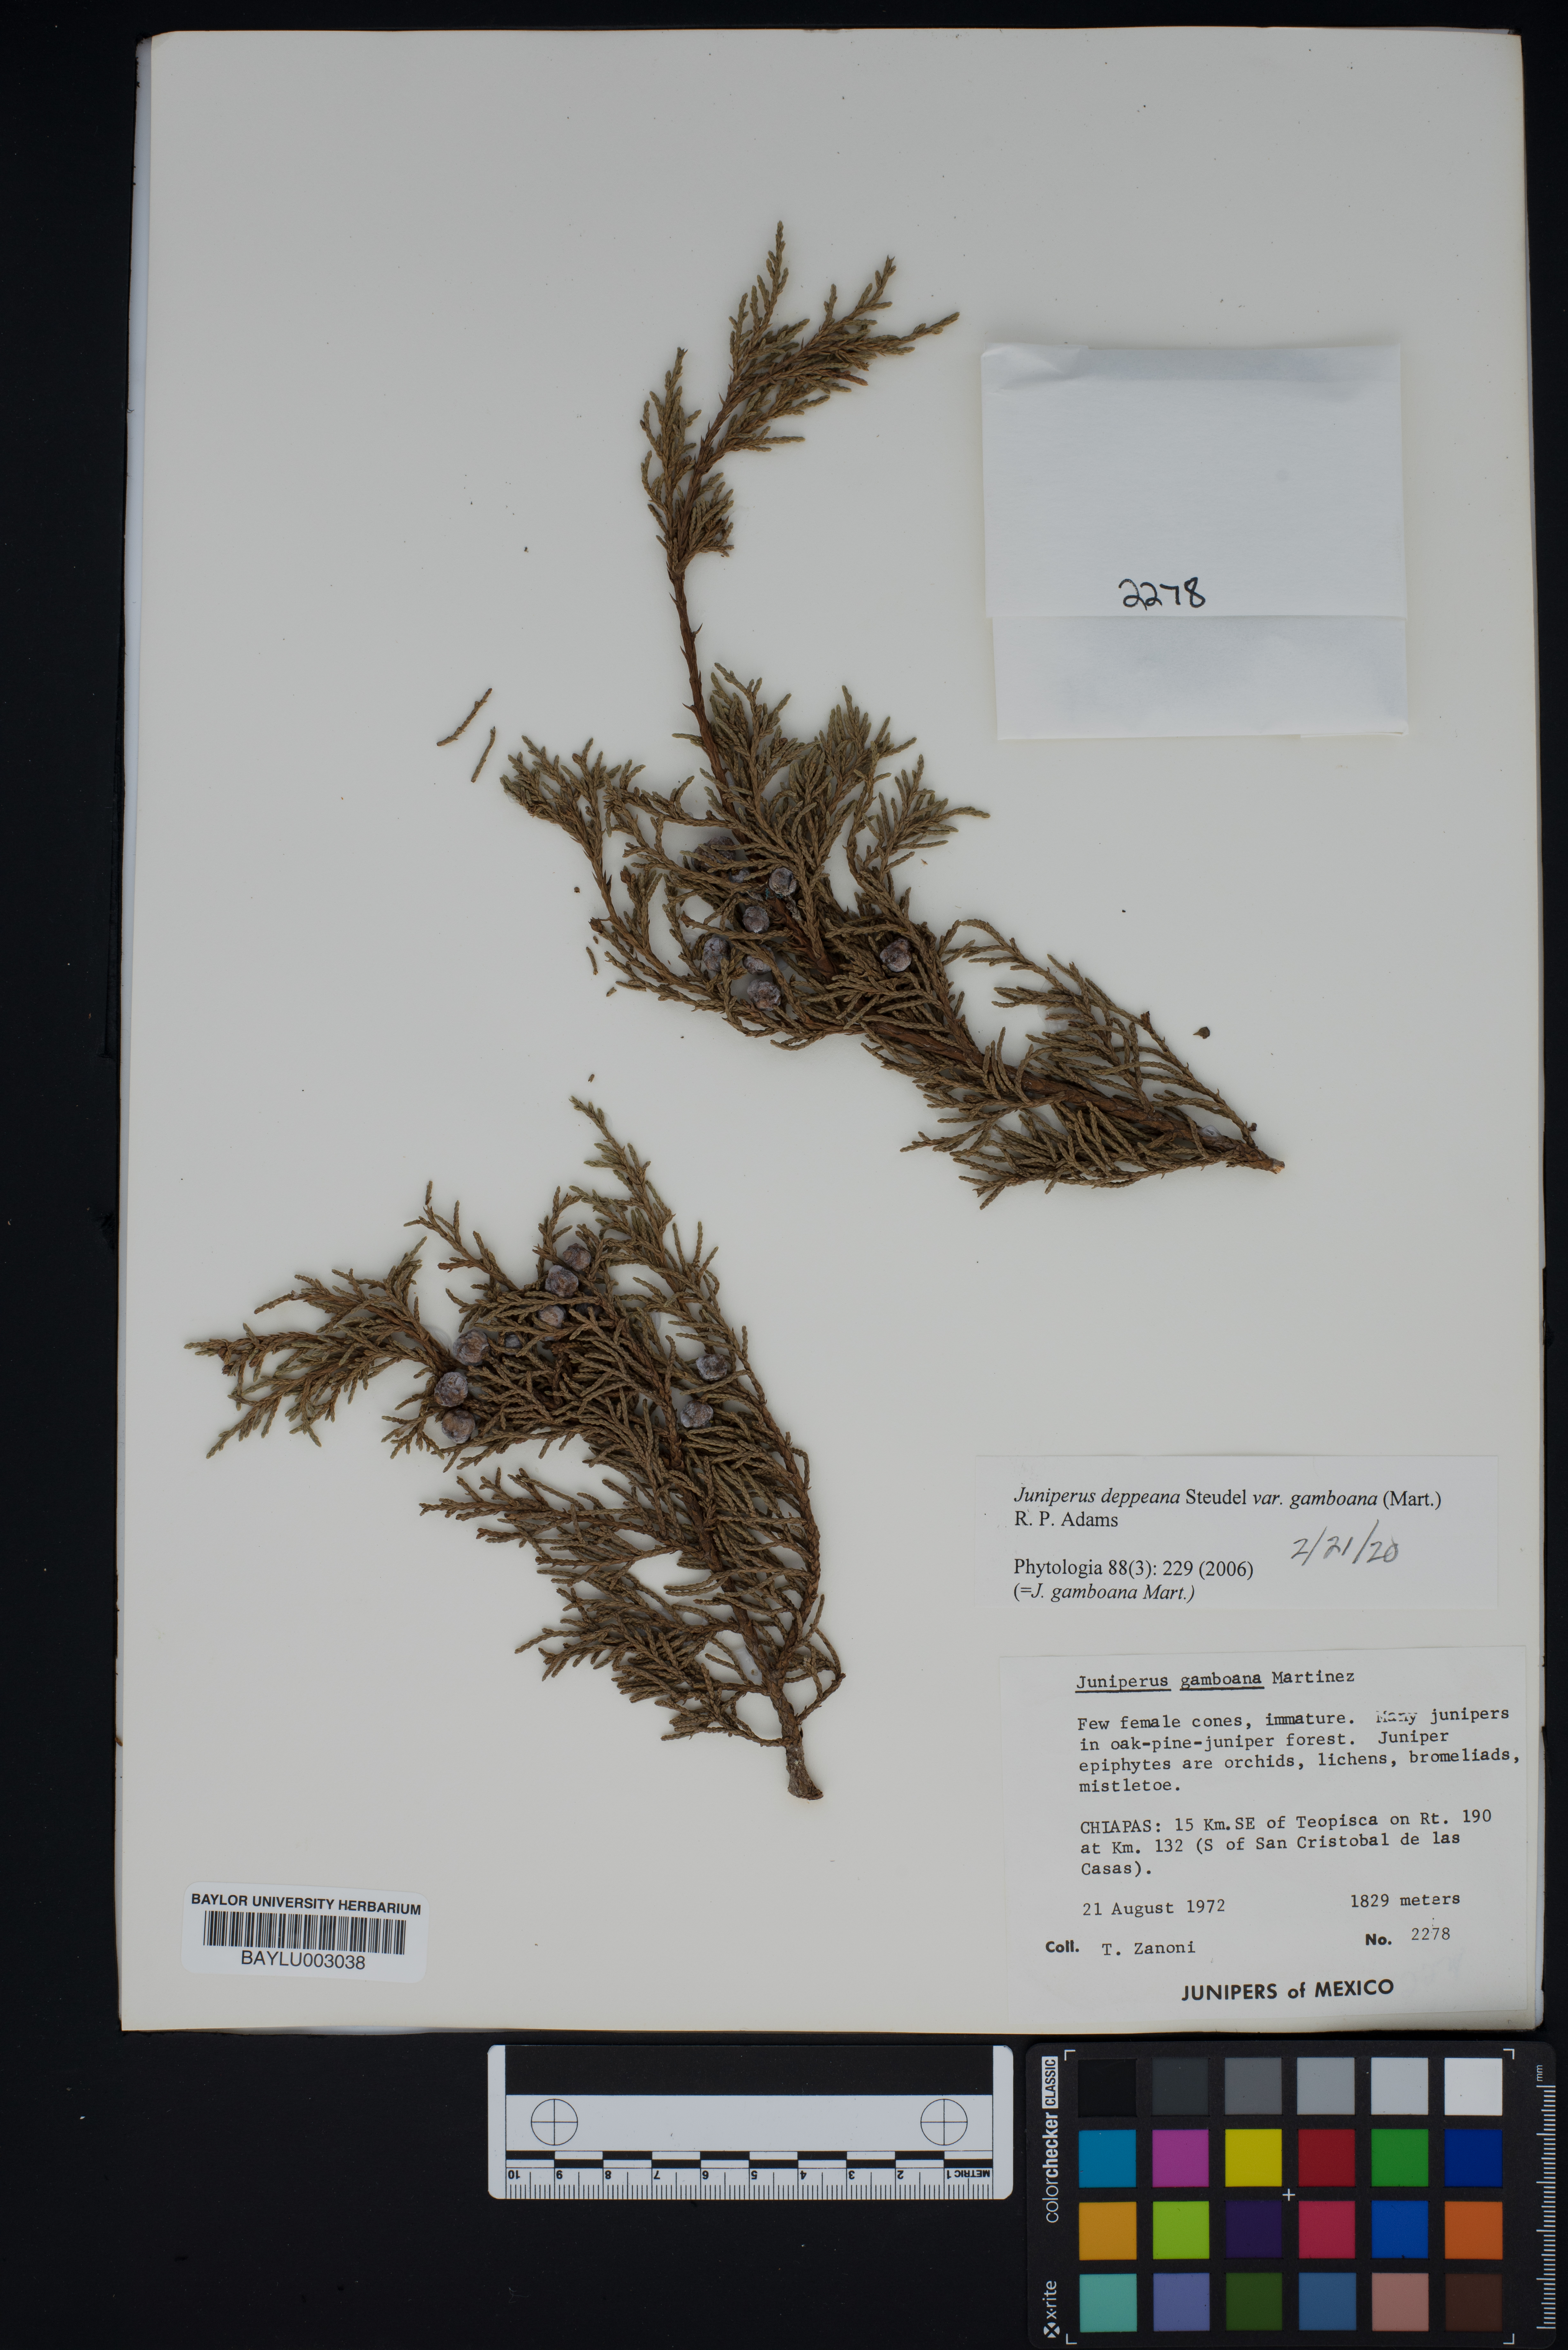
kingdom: Plantae
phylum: Tracheophyta
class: Pinopsida
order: Pinales
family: Cupressaceae
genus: Juniperus
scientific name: Juniperus gamboana
